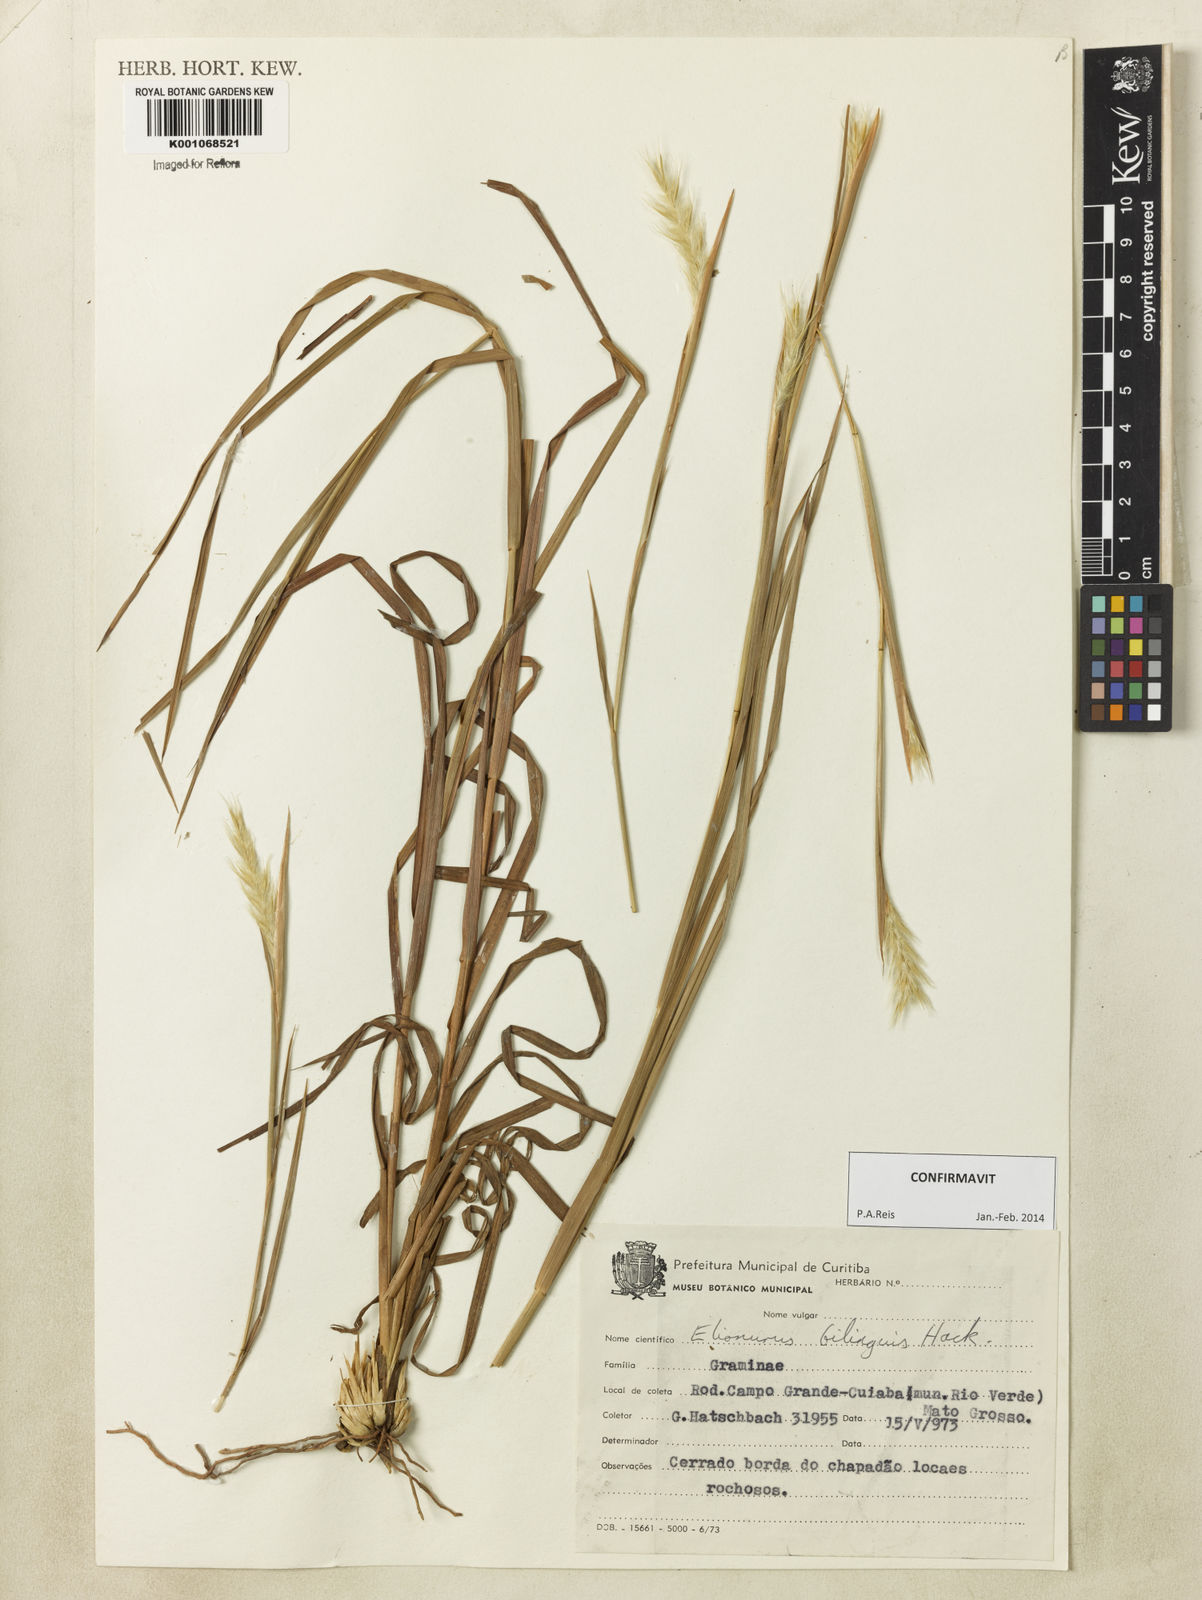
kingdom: Plantae
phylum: Tracheophyta
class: Liliopsida
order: Poales
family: Poaceae
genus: Elionurus
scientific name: Elionurus bilinguis
